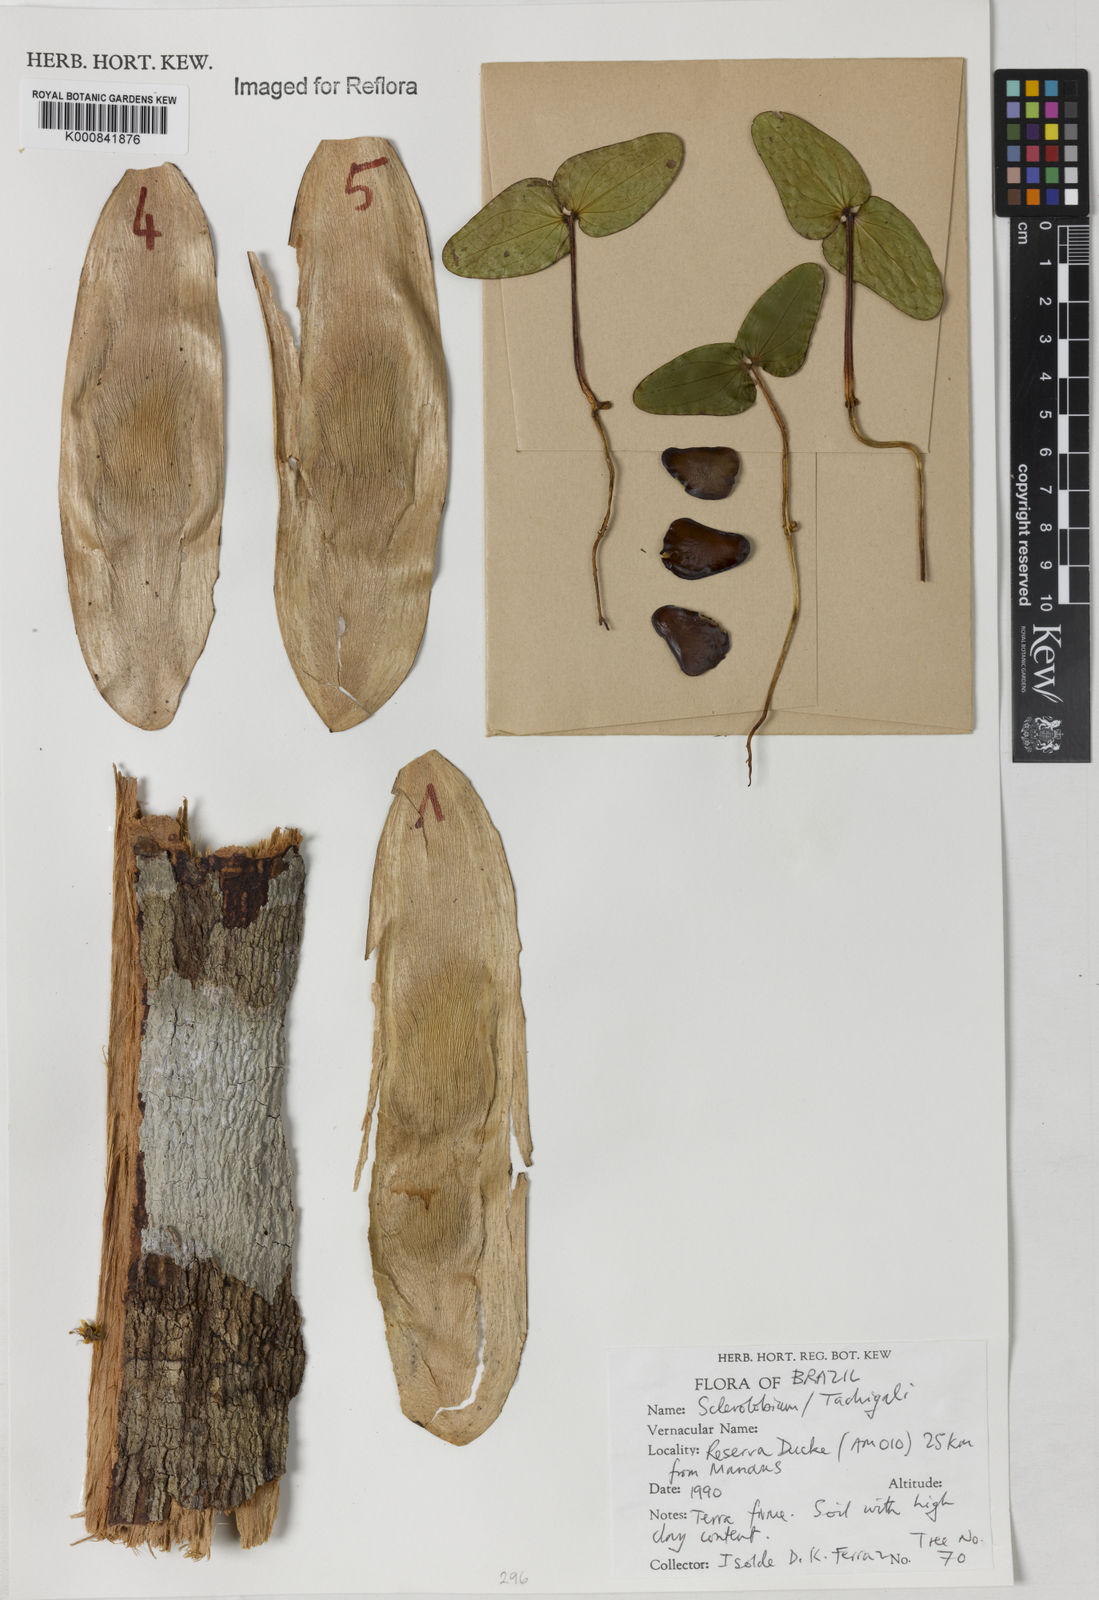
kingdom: Plantae
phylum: Tracheophyta
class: Magnoliopsida
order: Fabales
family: Fabaceae
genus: Tachigali
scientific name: Tachigali
